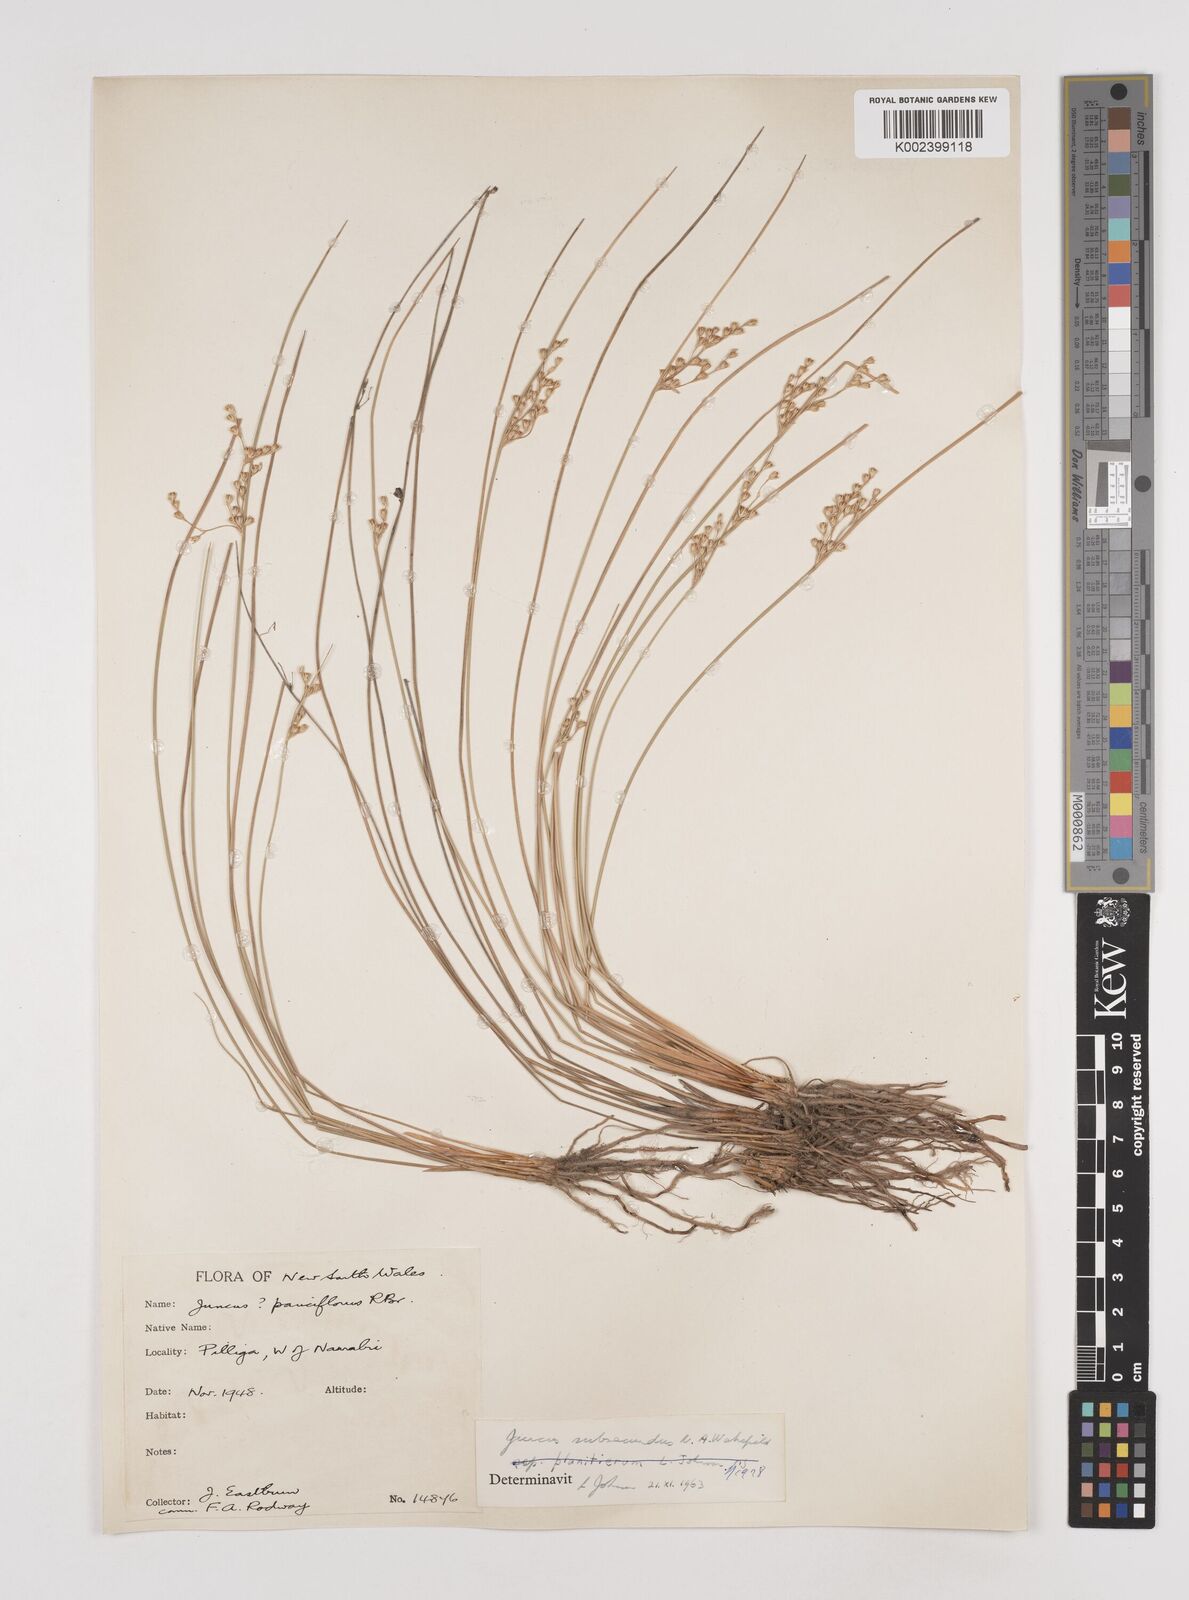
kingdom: Plantae
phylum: Tracheophyta
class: Liliopsida
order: Poales
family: Juncaceae
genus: Juncus
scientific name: Juncus subsecundus
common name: Fingered rush
